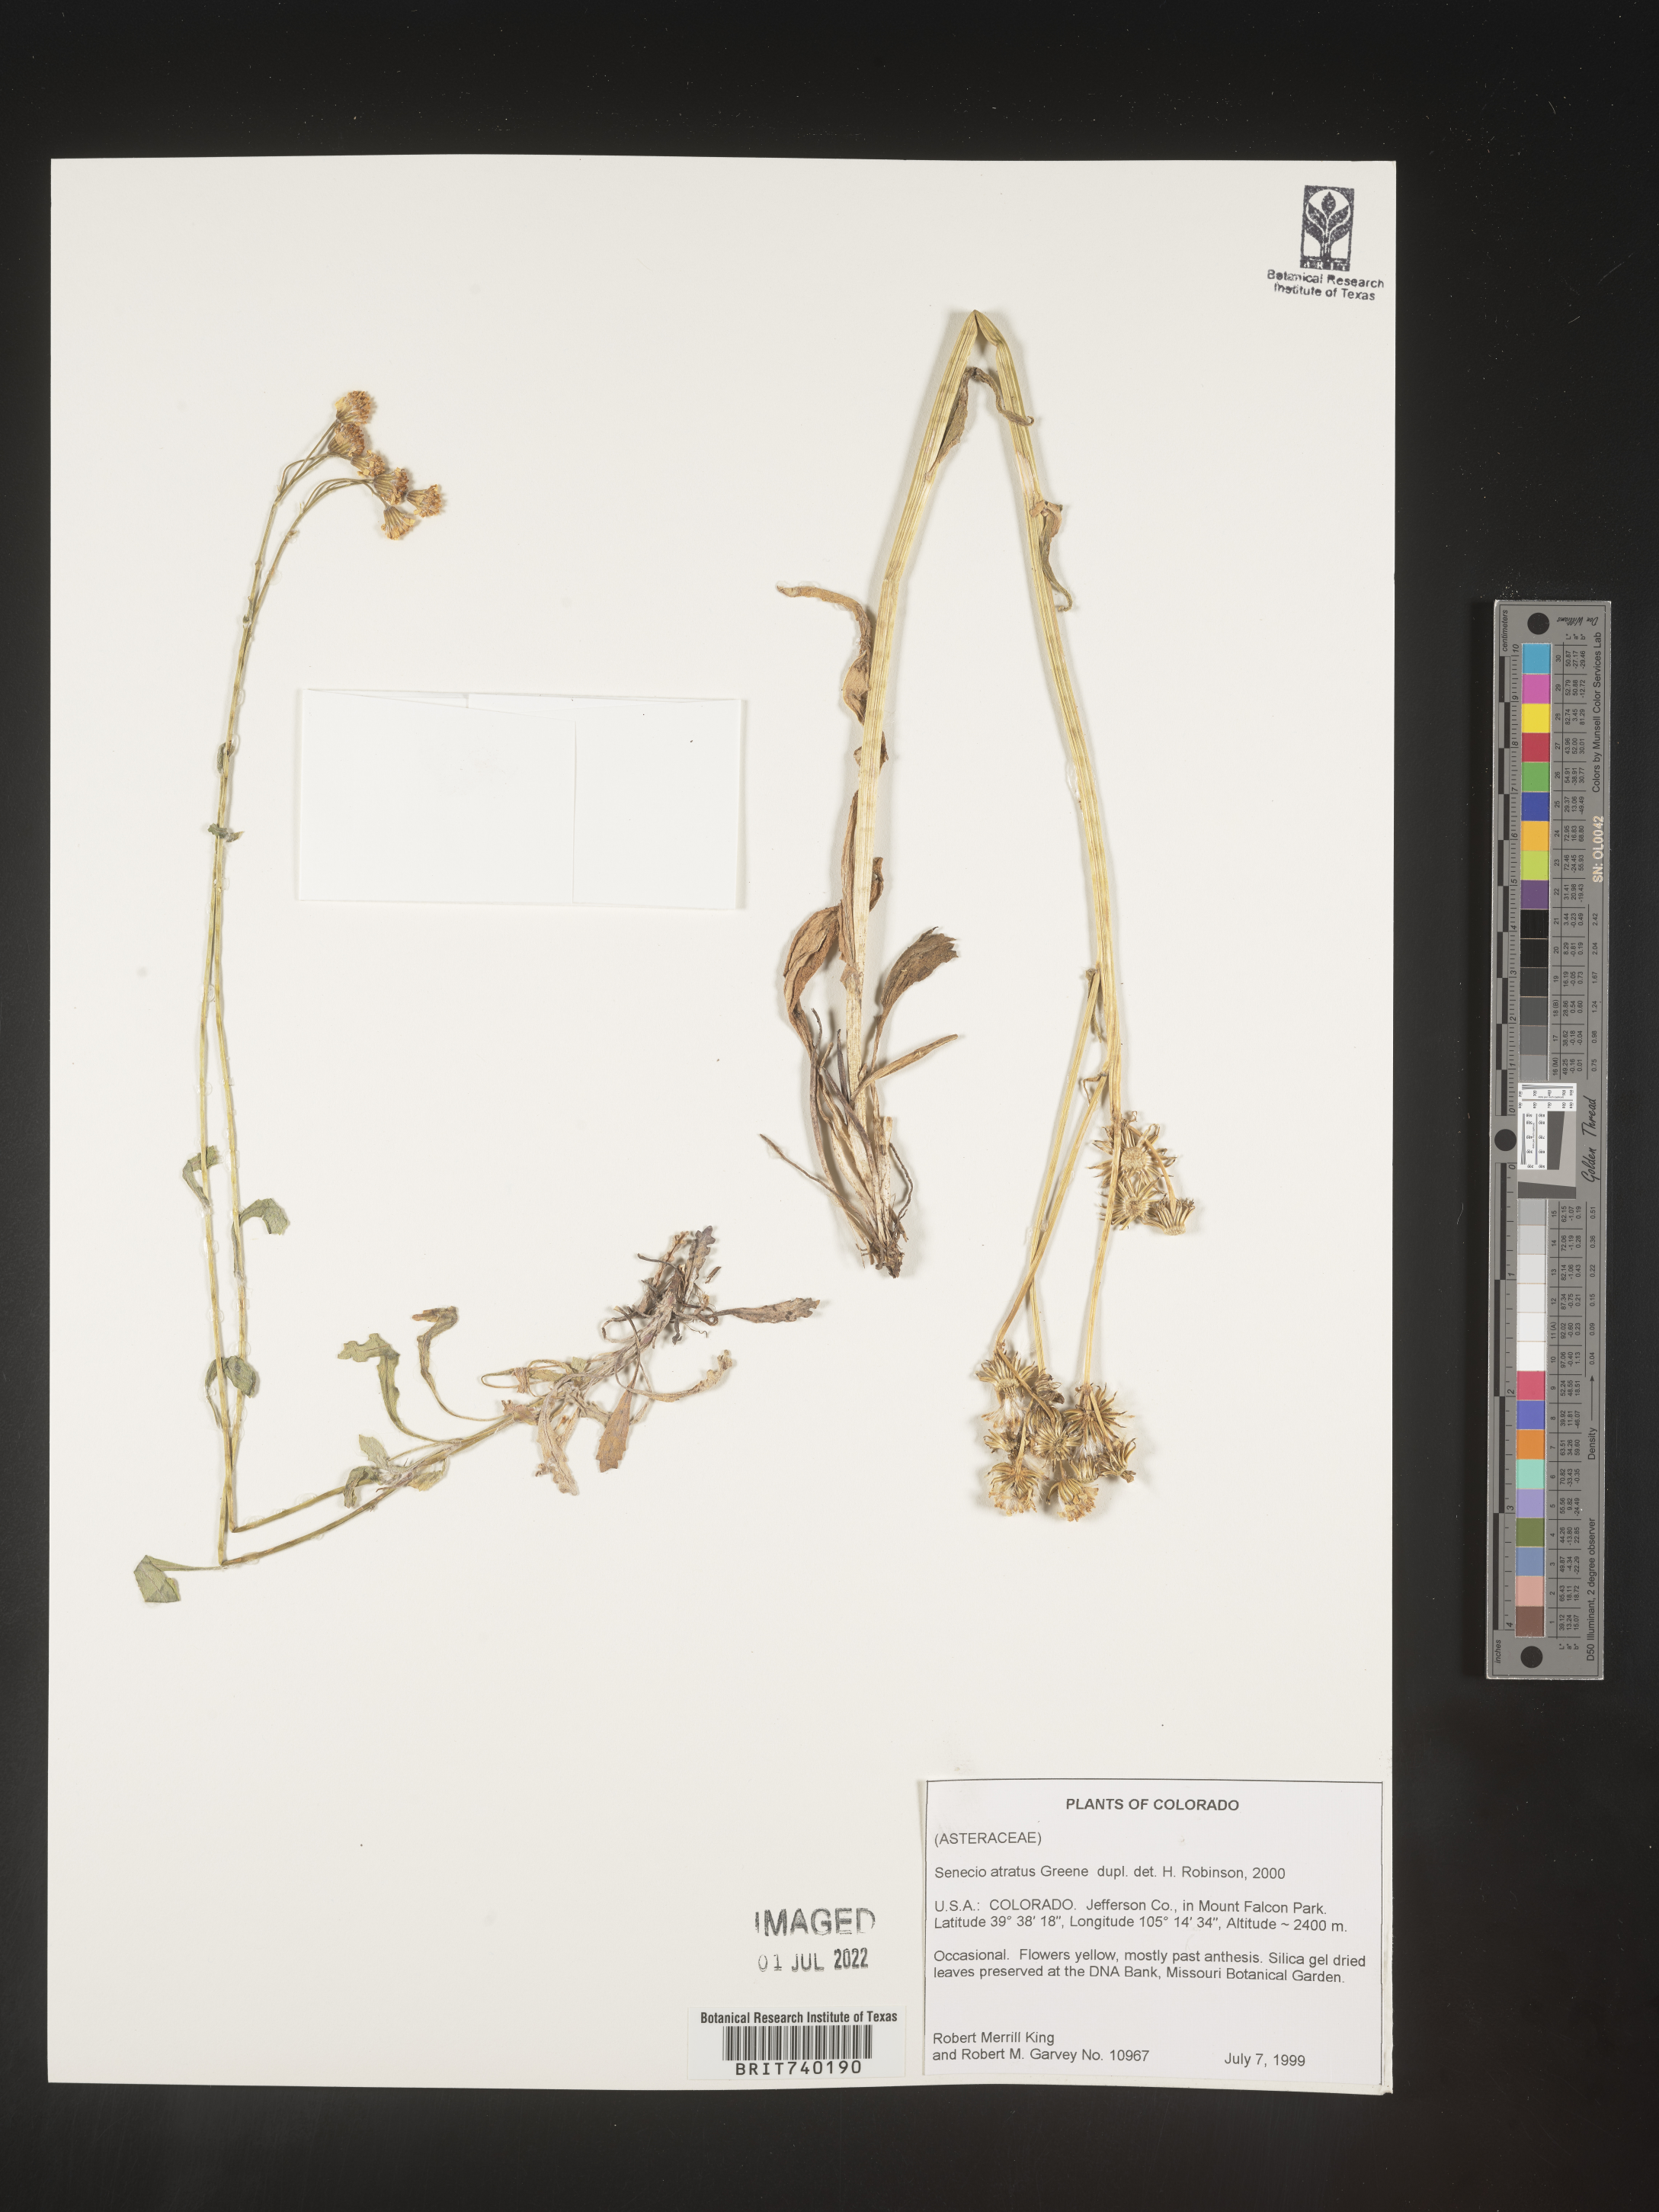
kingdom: Plantae
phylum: Tracheophyta
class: Magnoliopsida
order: Asterales
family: Asteraceae
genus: Senecio
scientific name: Senecio atratus
